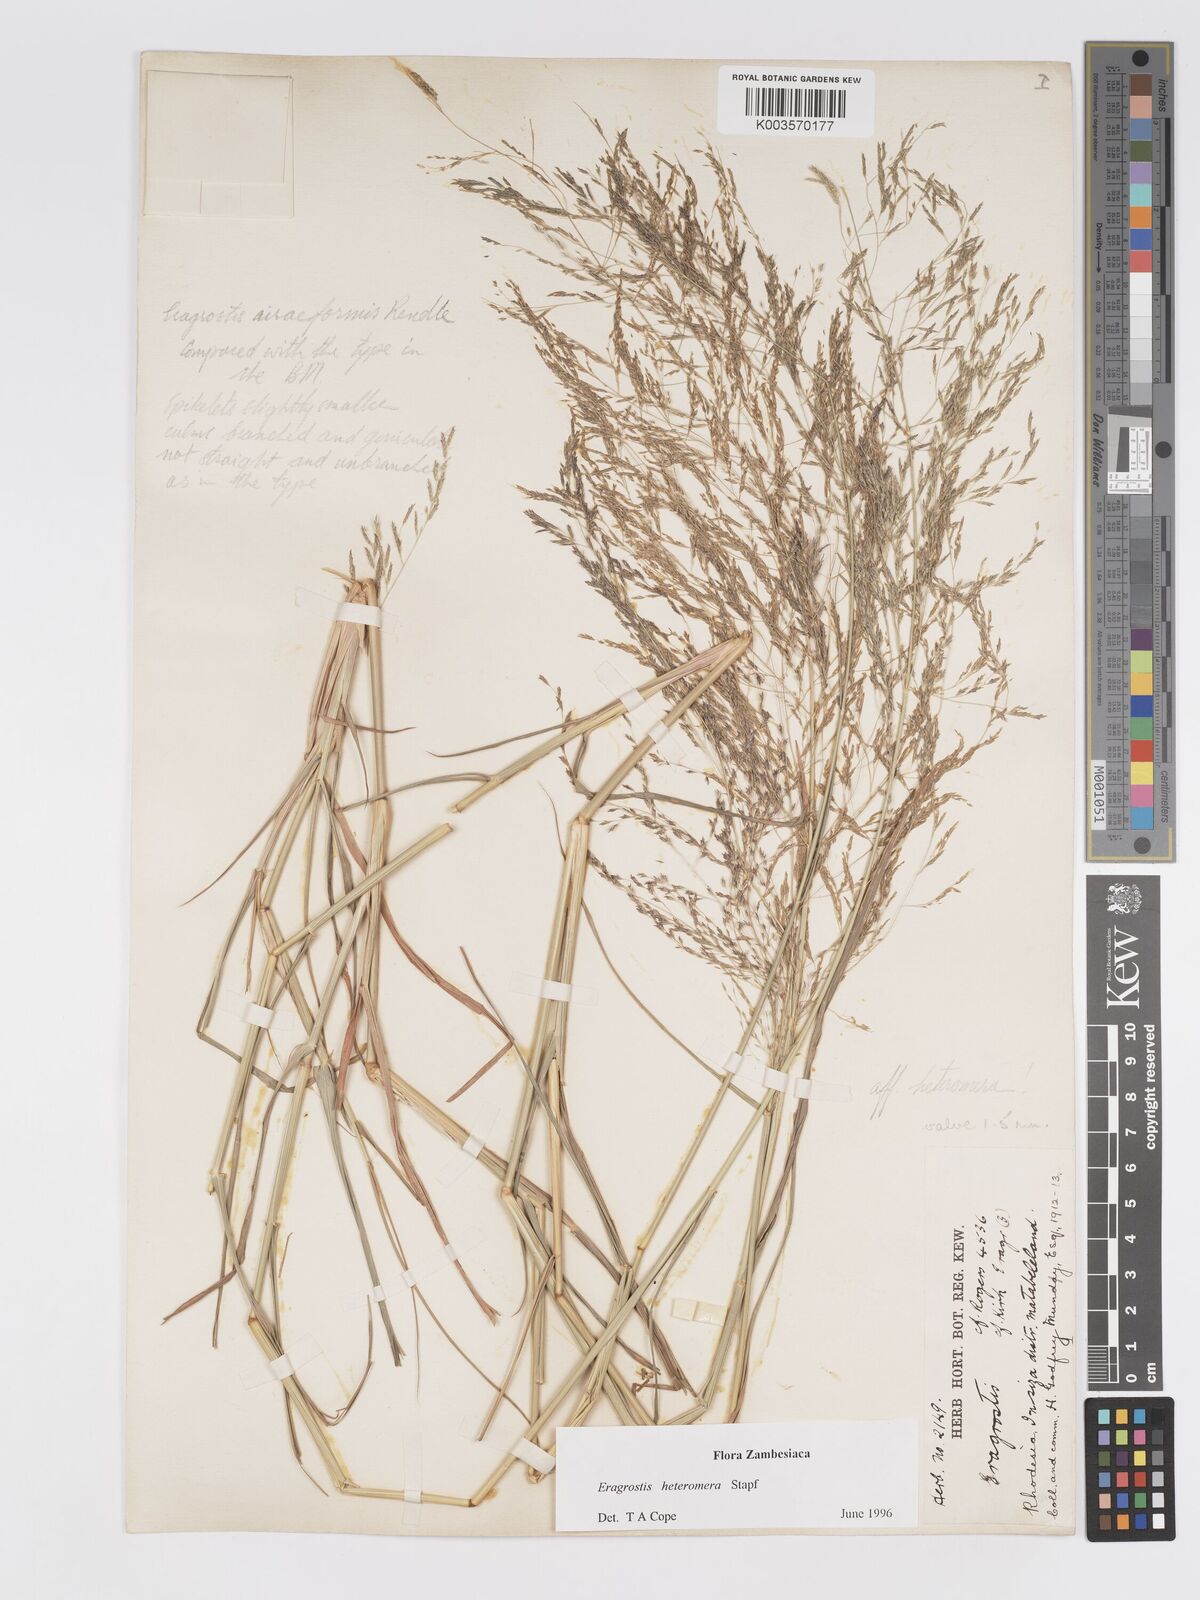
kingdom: Plantae
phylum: Tracheophyta
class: Liliopsida
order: Poales
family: Poaceae
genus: Eragrostis
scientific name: Eragrostis heteromera
